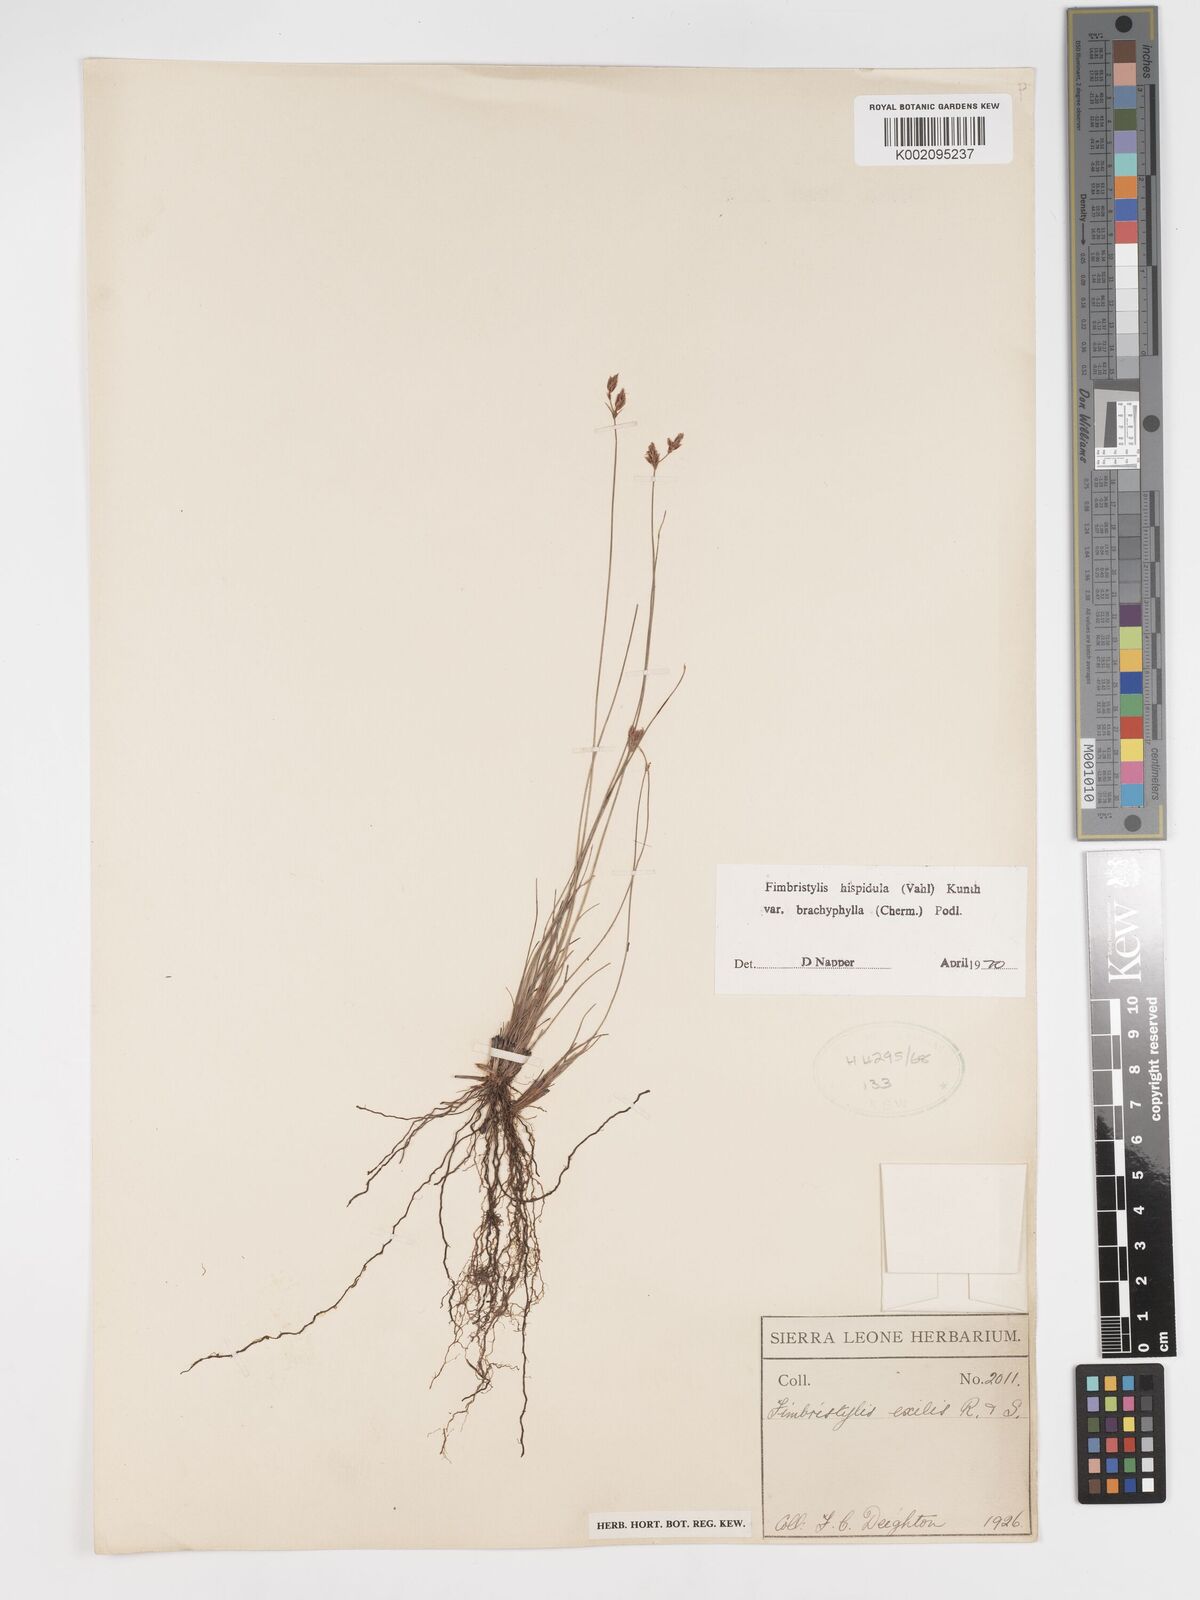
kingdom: Plantae
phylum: Tracheophyta
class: Liliopsida
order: Poales
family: Cyperaceae
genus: Bulbostylis
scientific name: Bulbostylis hispidula
